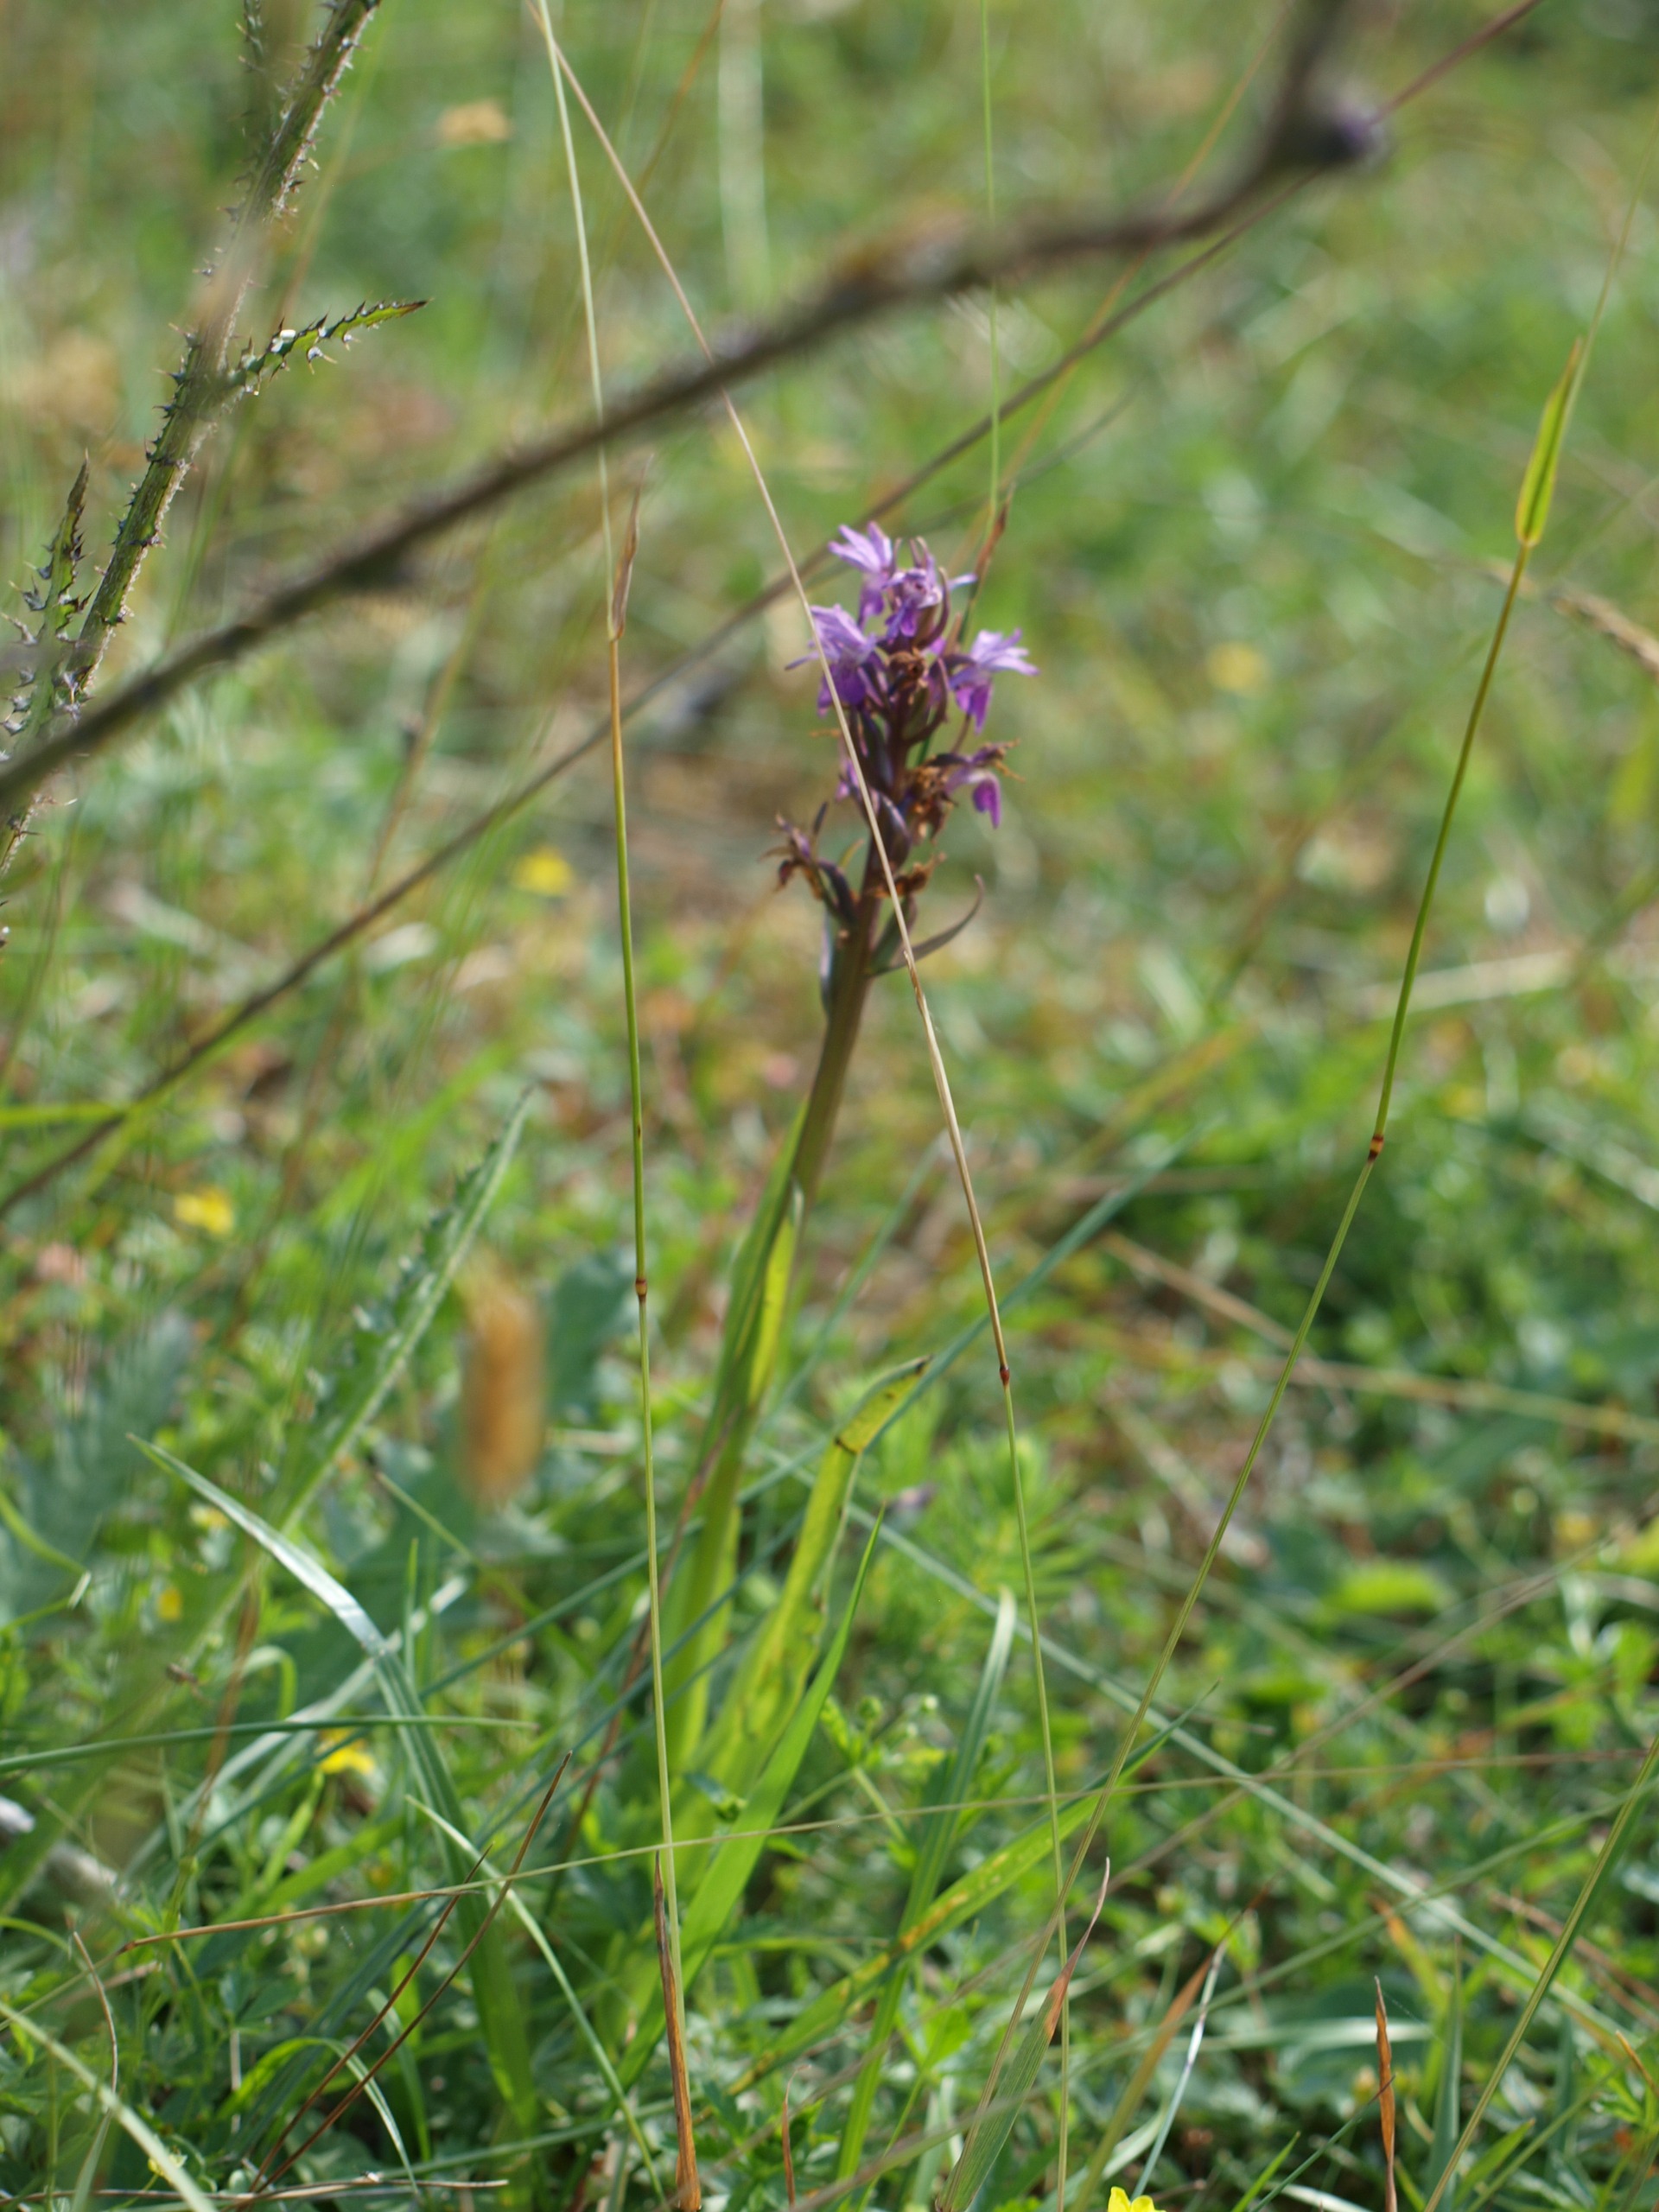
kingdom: Plantae
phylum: Tracheophyta
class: Liliopsida
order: Asparagales
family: Orchidaceae
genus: Dactylorhiza
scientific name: Dactylorhiza incarnata
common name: Kødfarvet gøgeurt
